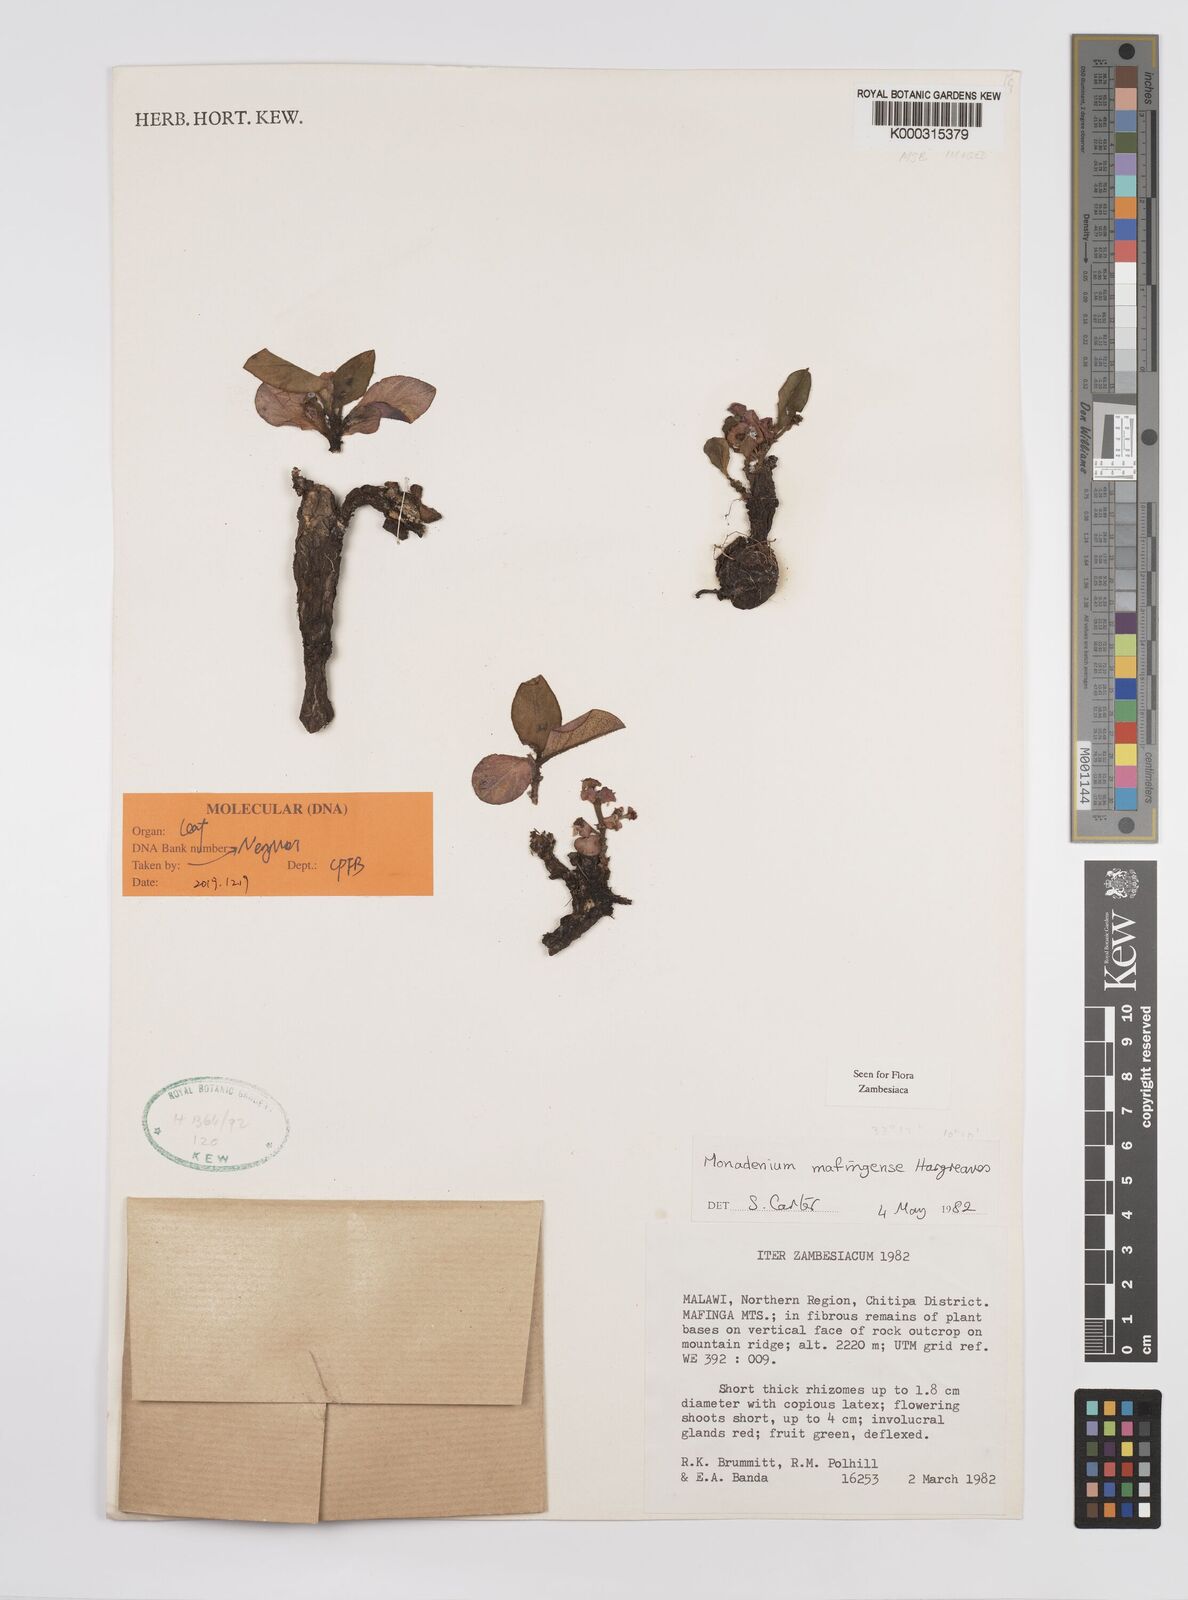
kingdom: Plantae
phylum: Tracheophyta
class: Magnoliopsida
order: Malpighiales
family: Euphorbiaceae
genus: Euphorbia
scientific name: Euphorbia mafingensis
